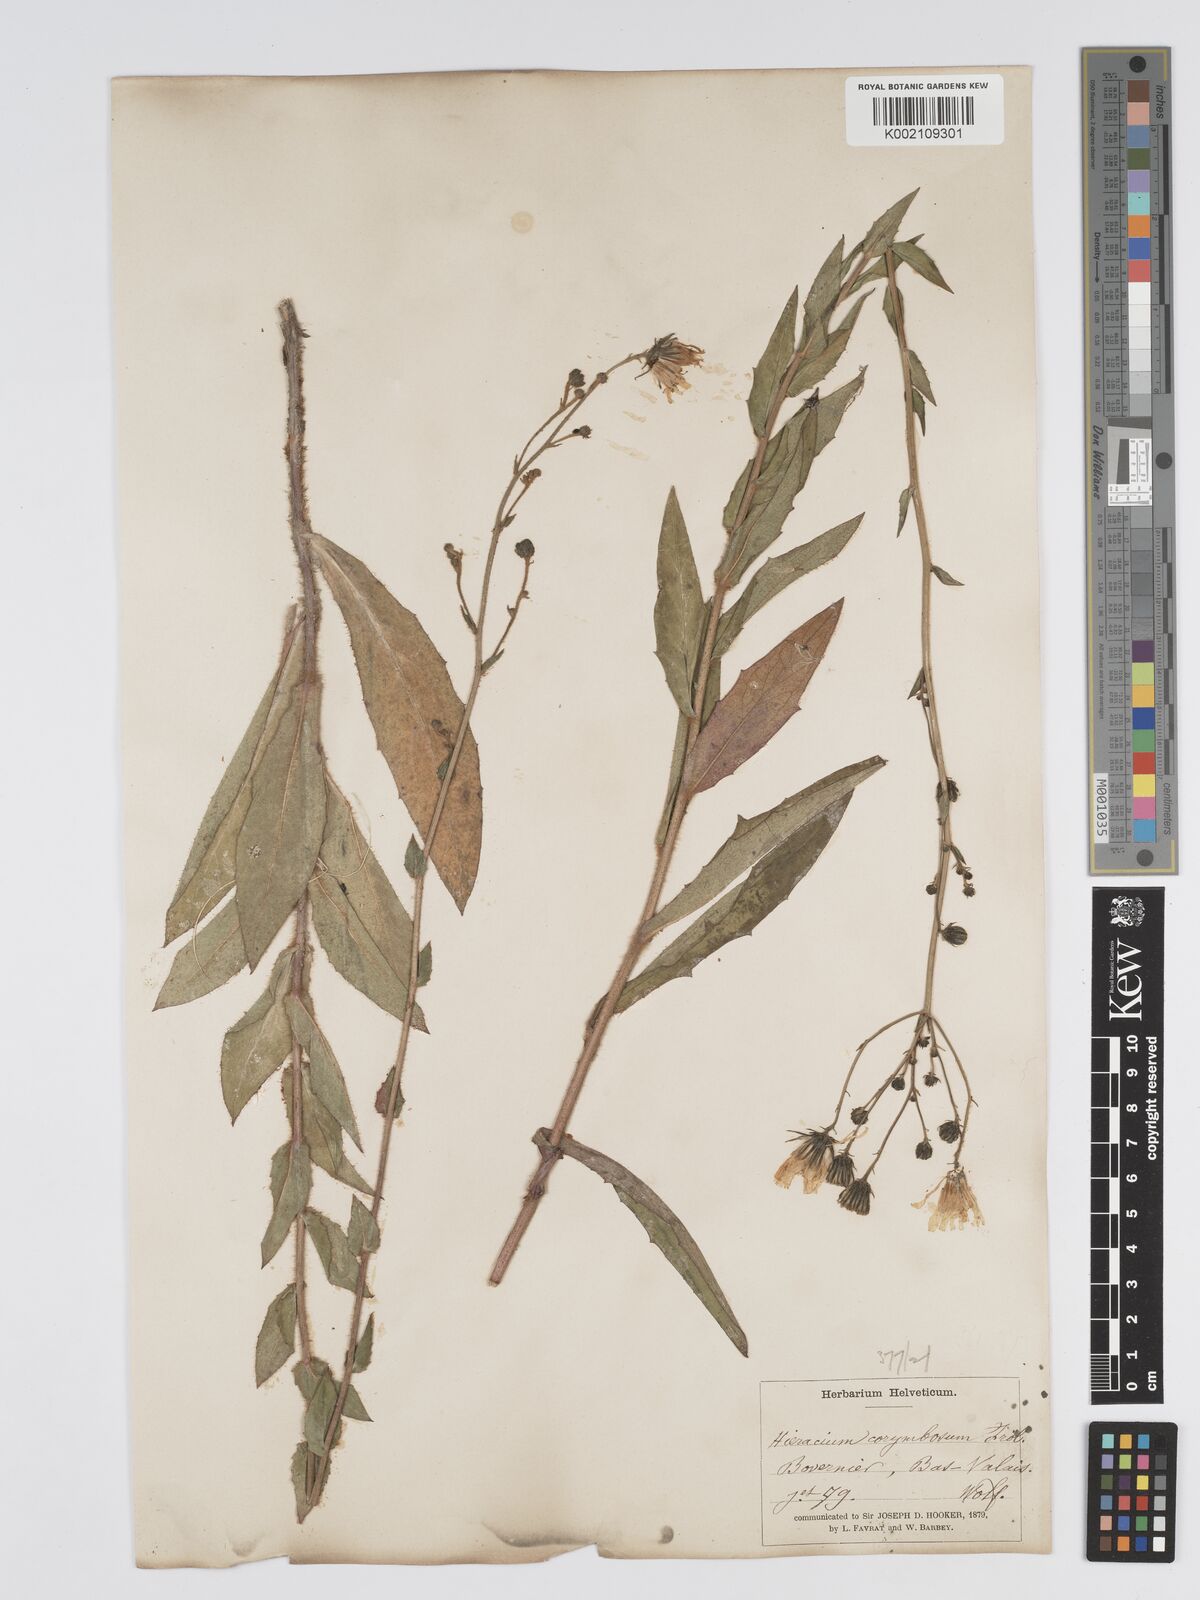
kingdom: Plantae
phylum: Tracheophyta
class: Magnoliopsida
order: Asterales
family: Asteraceae
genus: Hieracium
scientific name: Hieracium pseudocorymbosum
